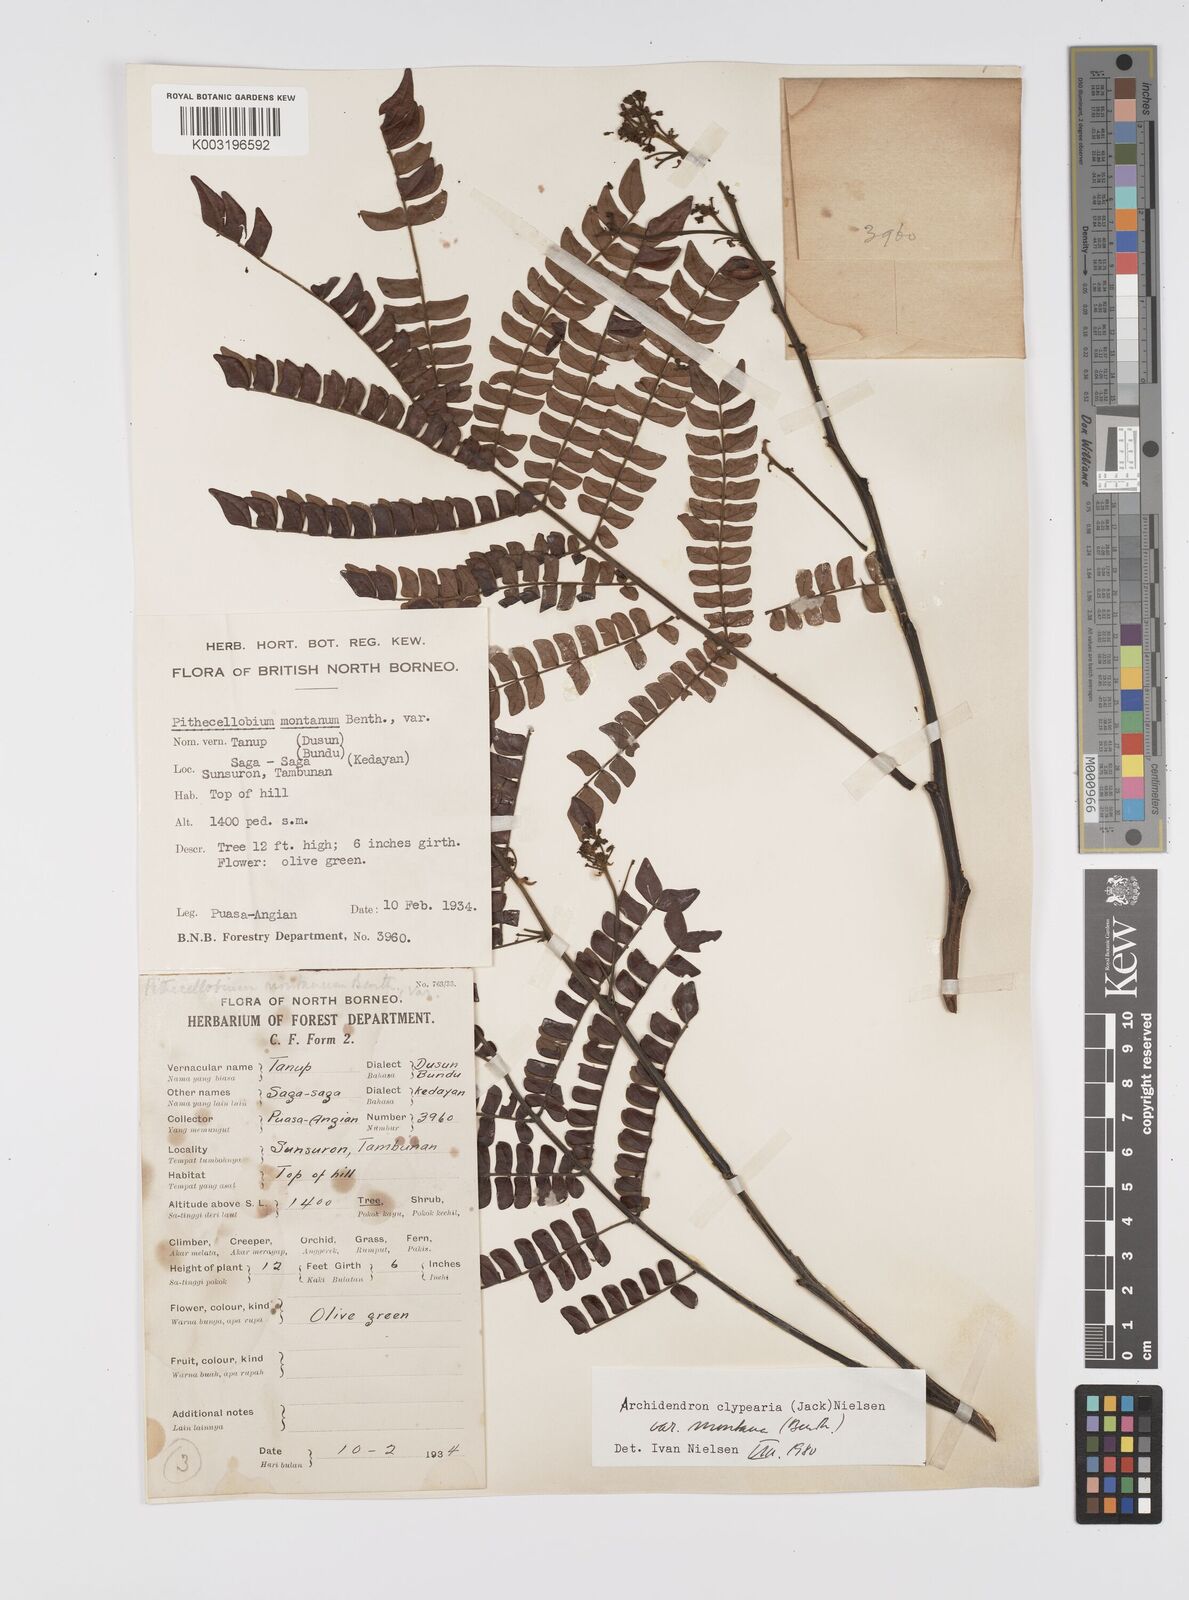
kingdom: Plantae
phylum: Tracheophyta
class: Magnoliopsida
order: Fabales
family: Fabaceae
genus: Archidendron
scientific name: Archidendron clypearia
